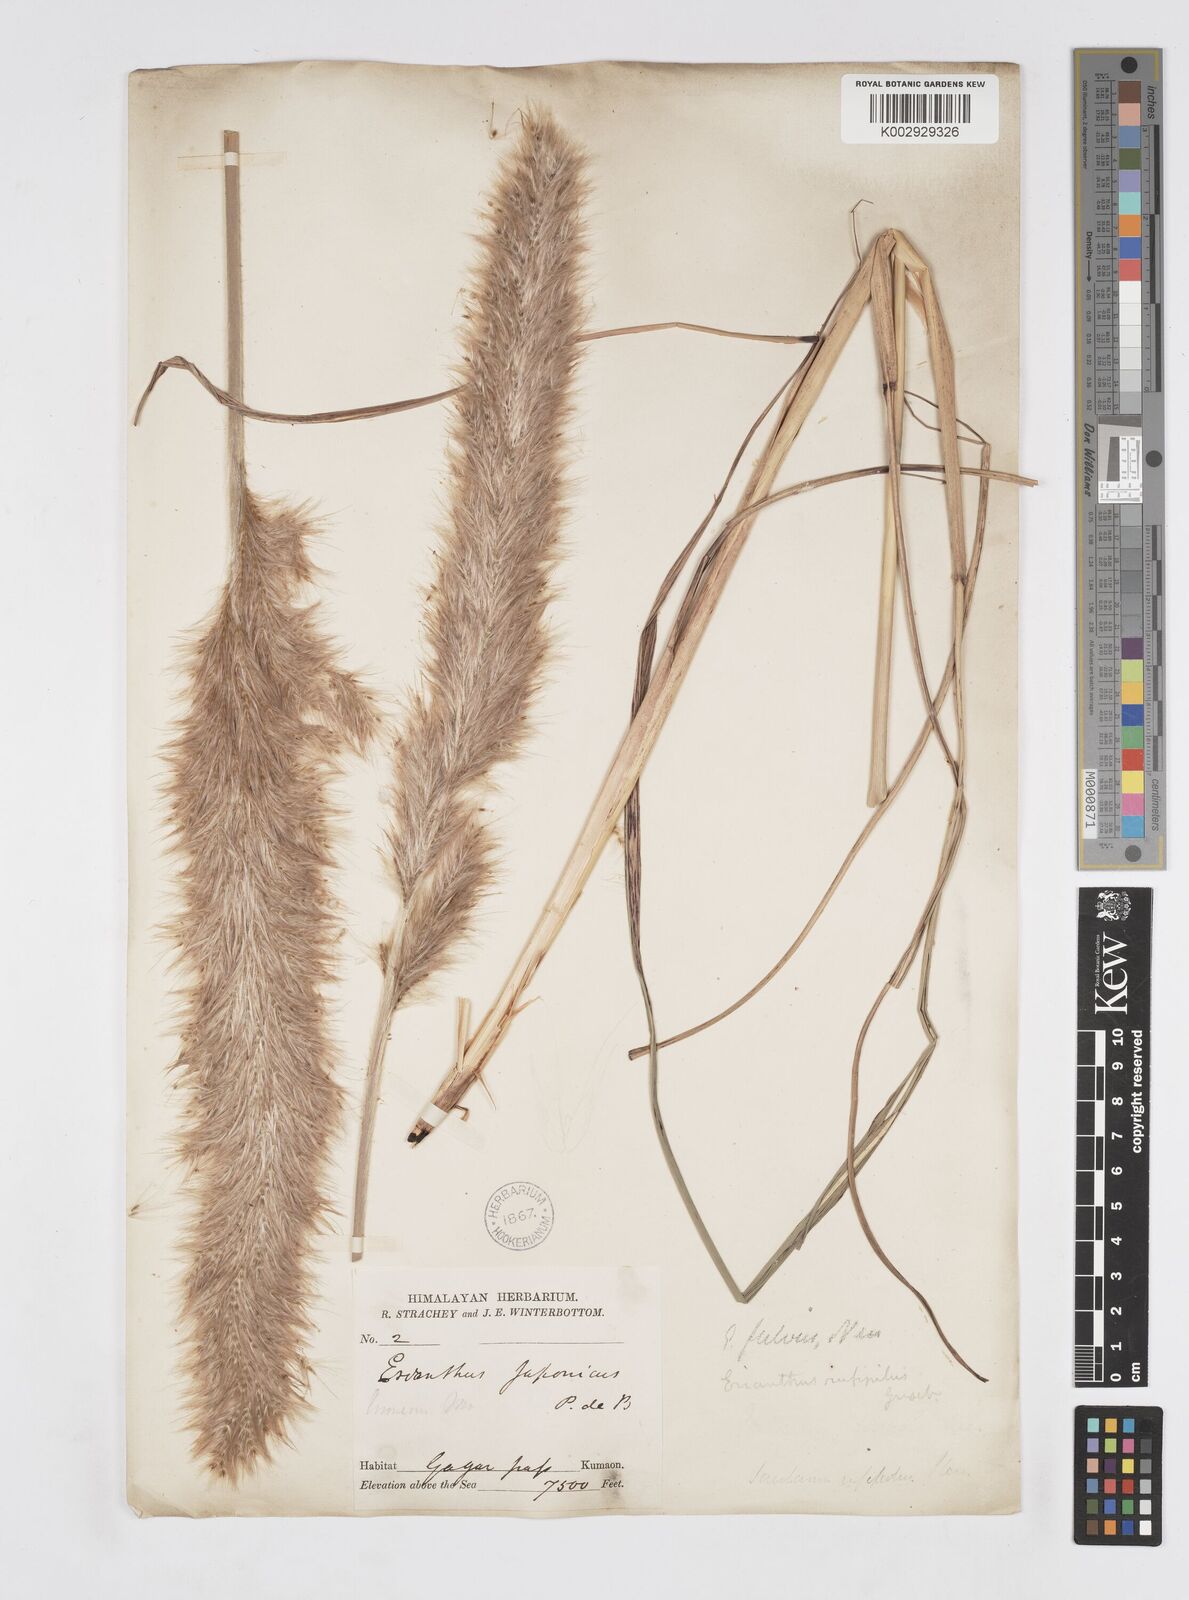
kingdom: Plantae
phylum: Tracheophyta
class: Liliopsida
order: Poales
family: Poaceae
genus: Tripidium
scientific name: Tripidium rufipilum
